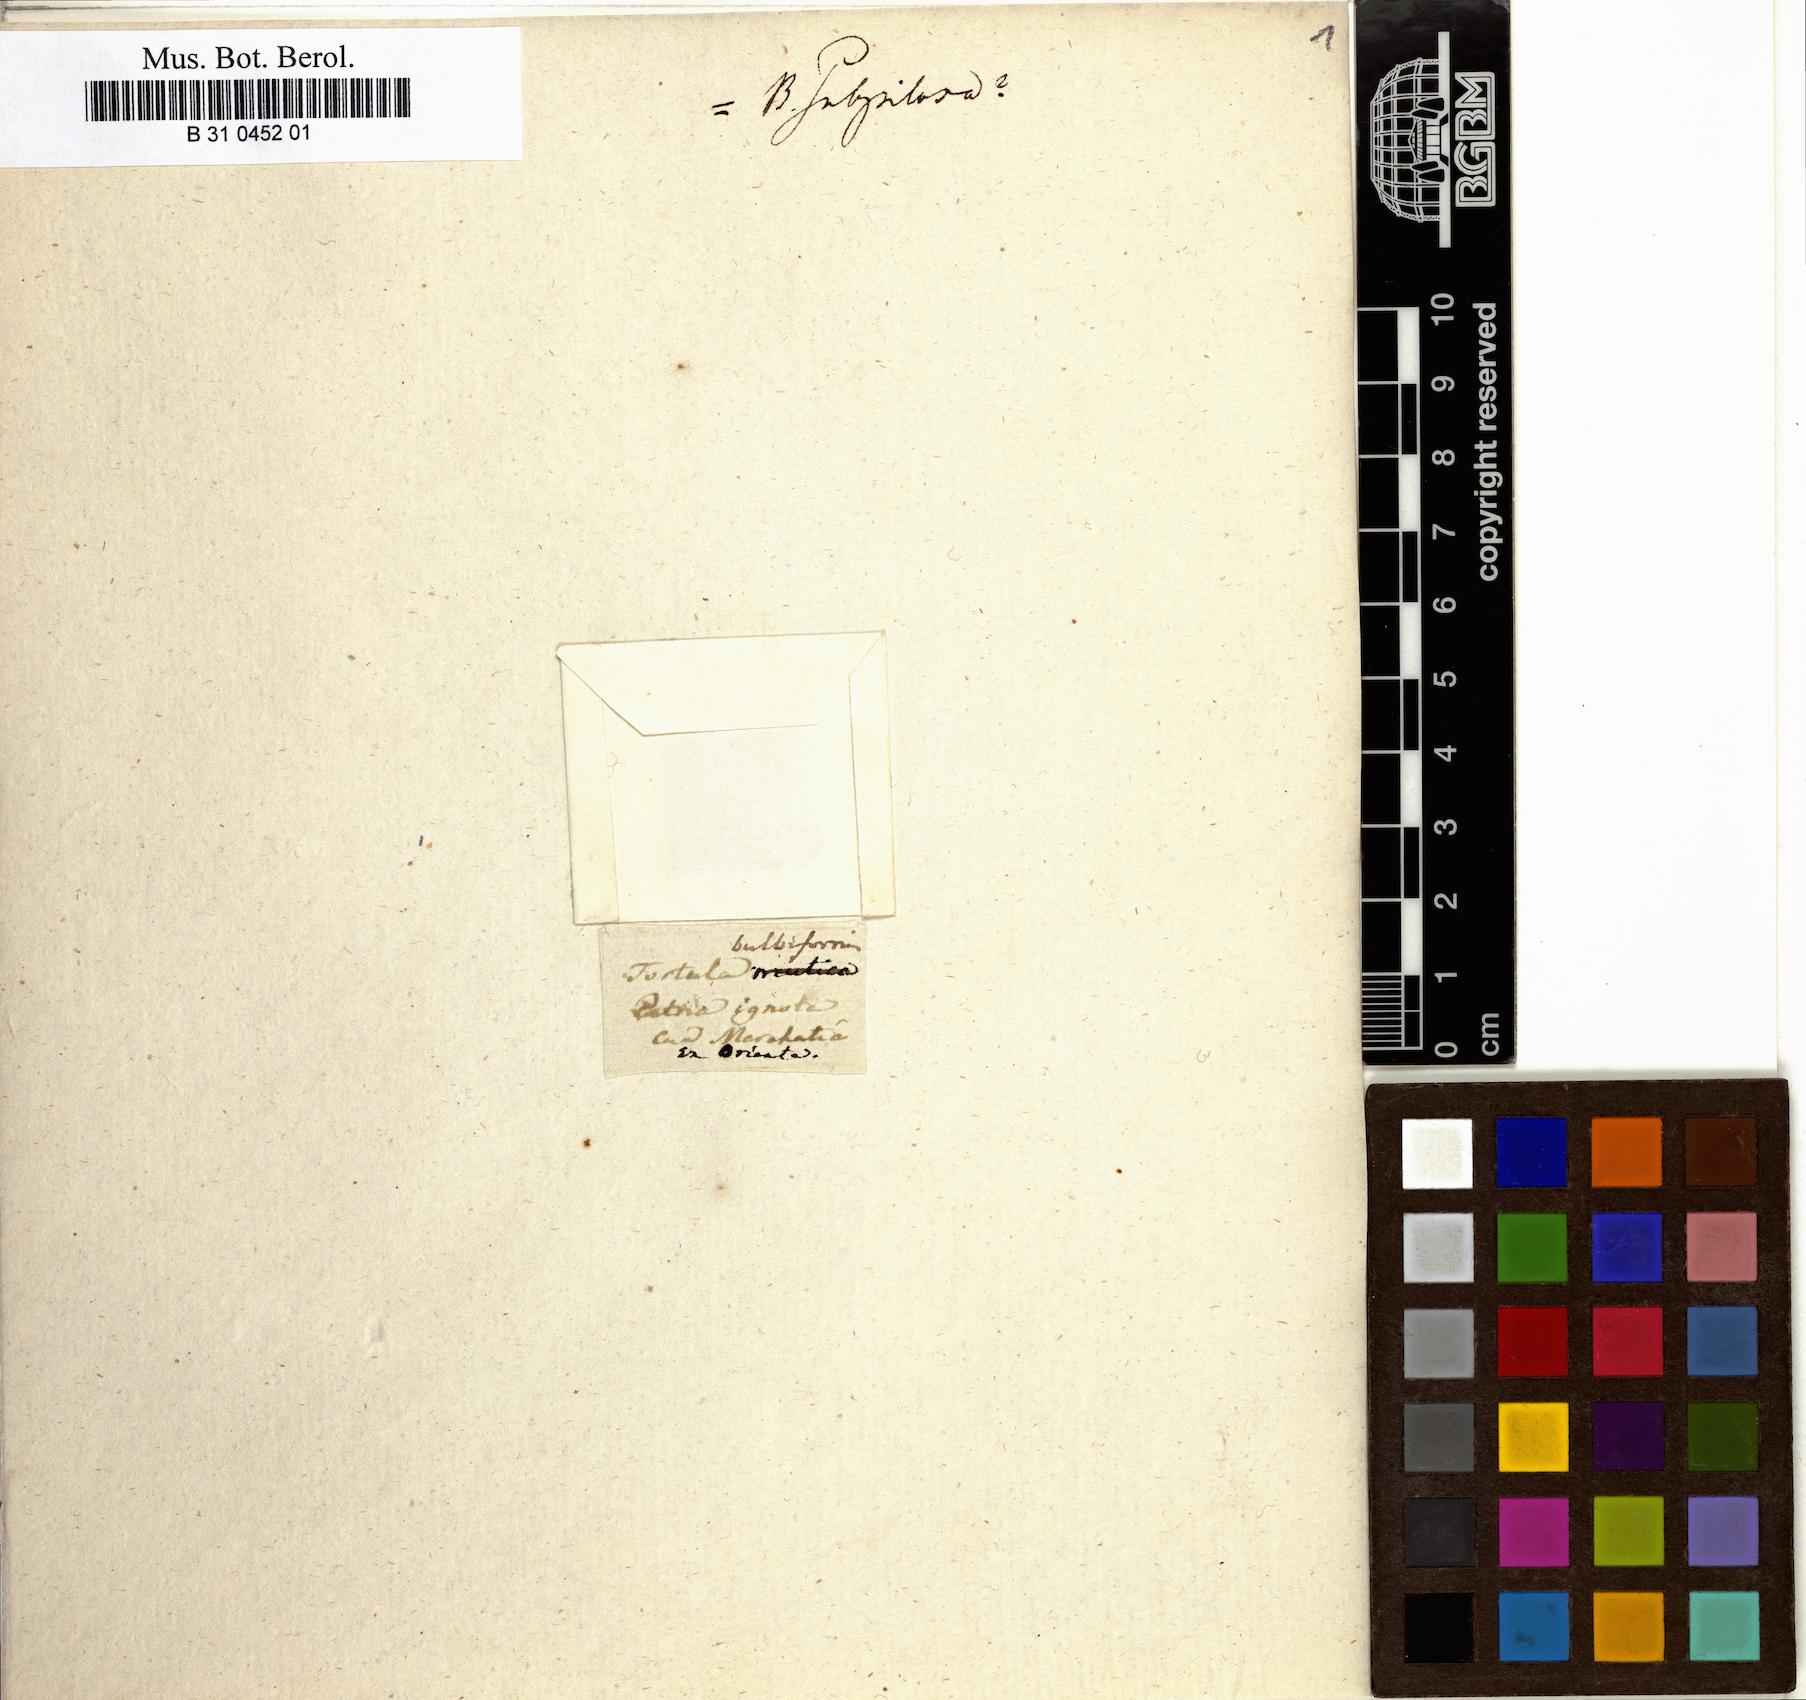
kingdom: Plantae
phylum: Bryophyta
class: Bryopsida
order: Pottiales
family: Pottiaceae
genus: Barbula
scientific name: Barbula bulbiformis
